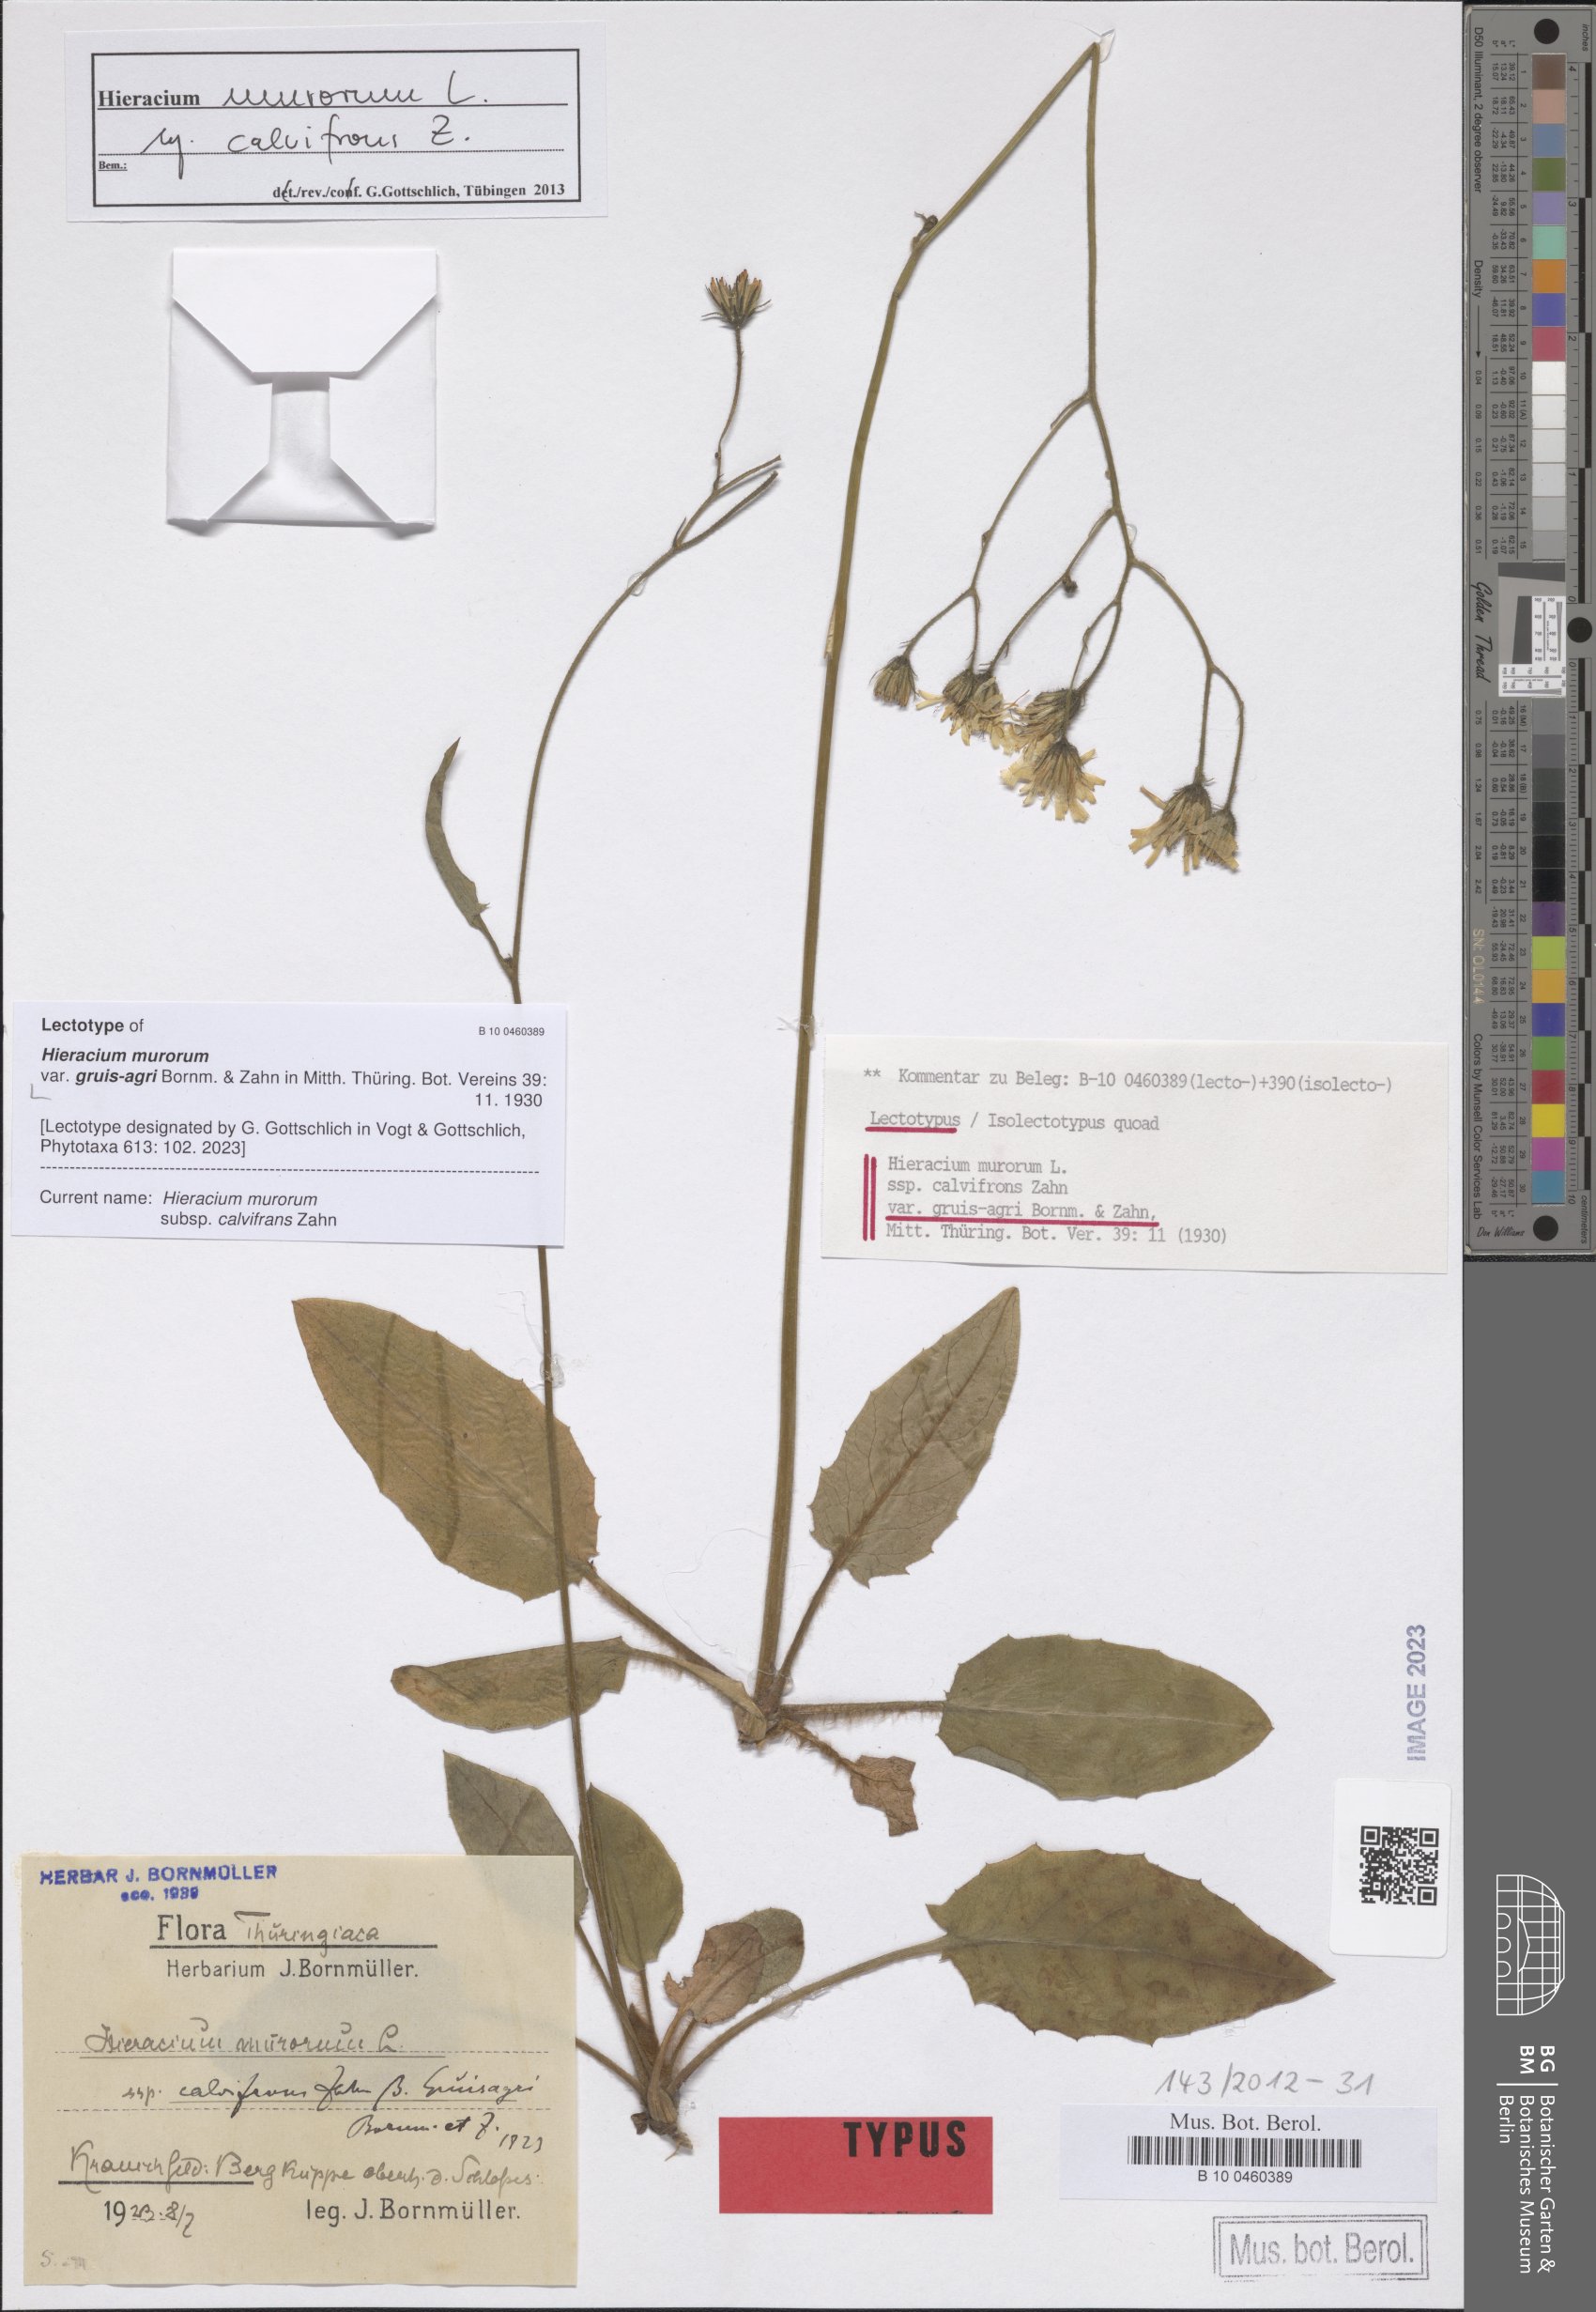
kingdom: Plantae
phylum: Tracheophyta
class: Magnoliopsida
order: Asterales
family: Asteraceae
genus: Hieracium
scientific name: Hieracium murorum
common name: Wall hawkweed
